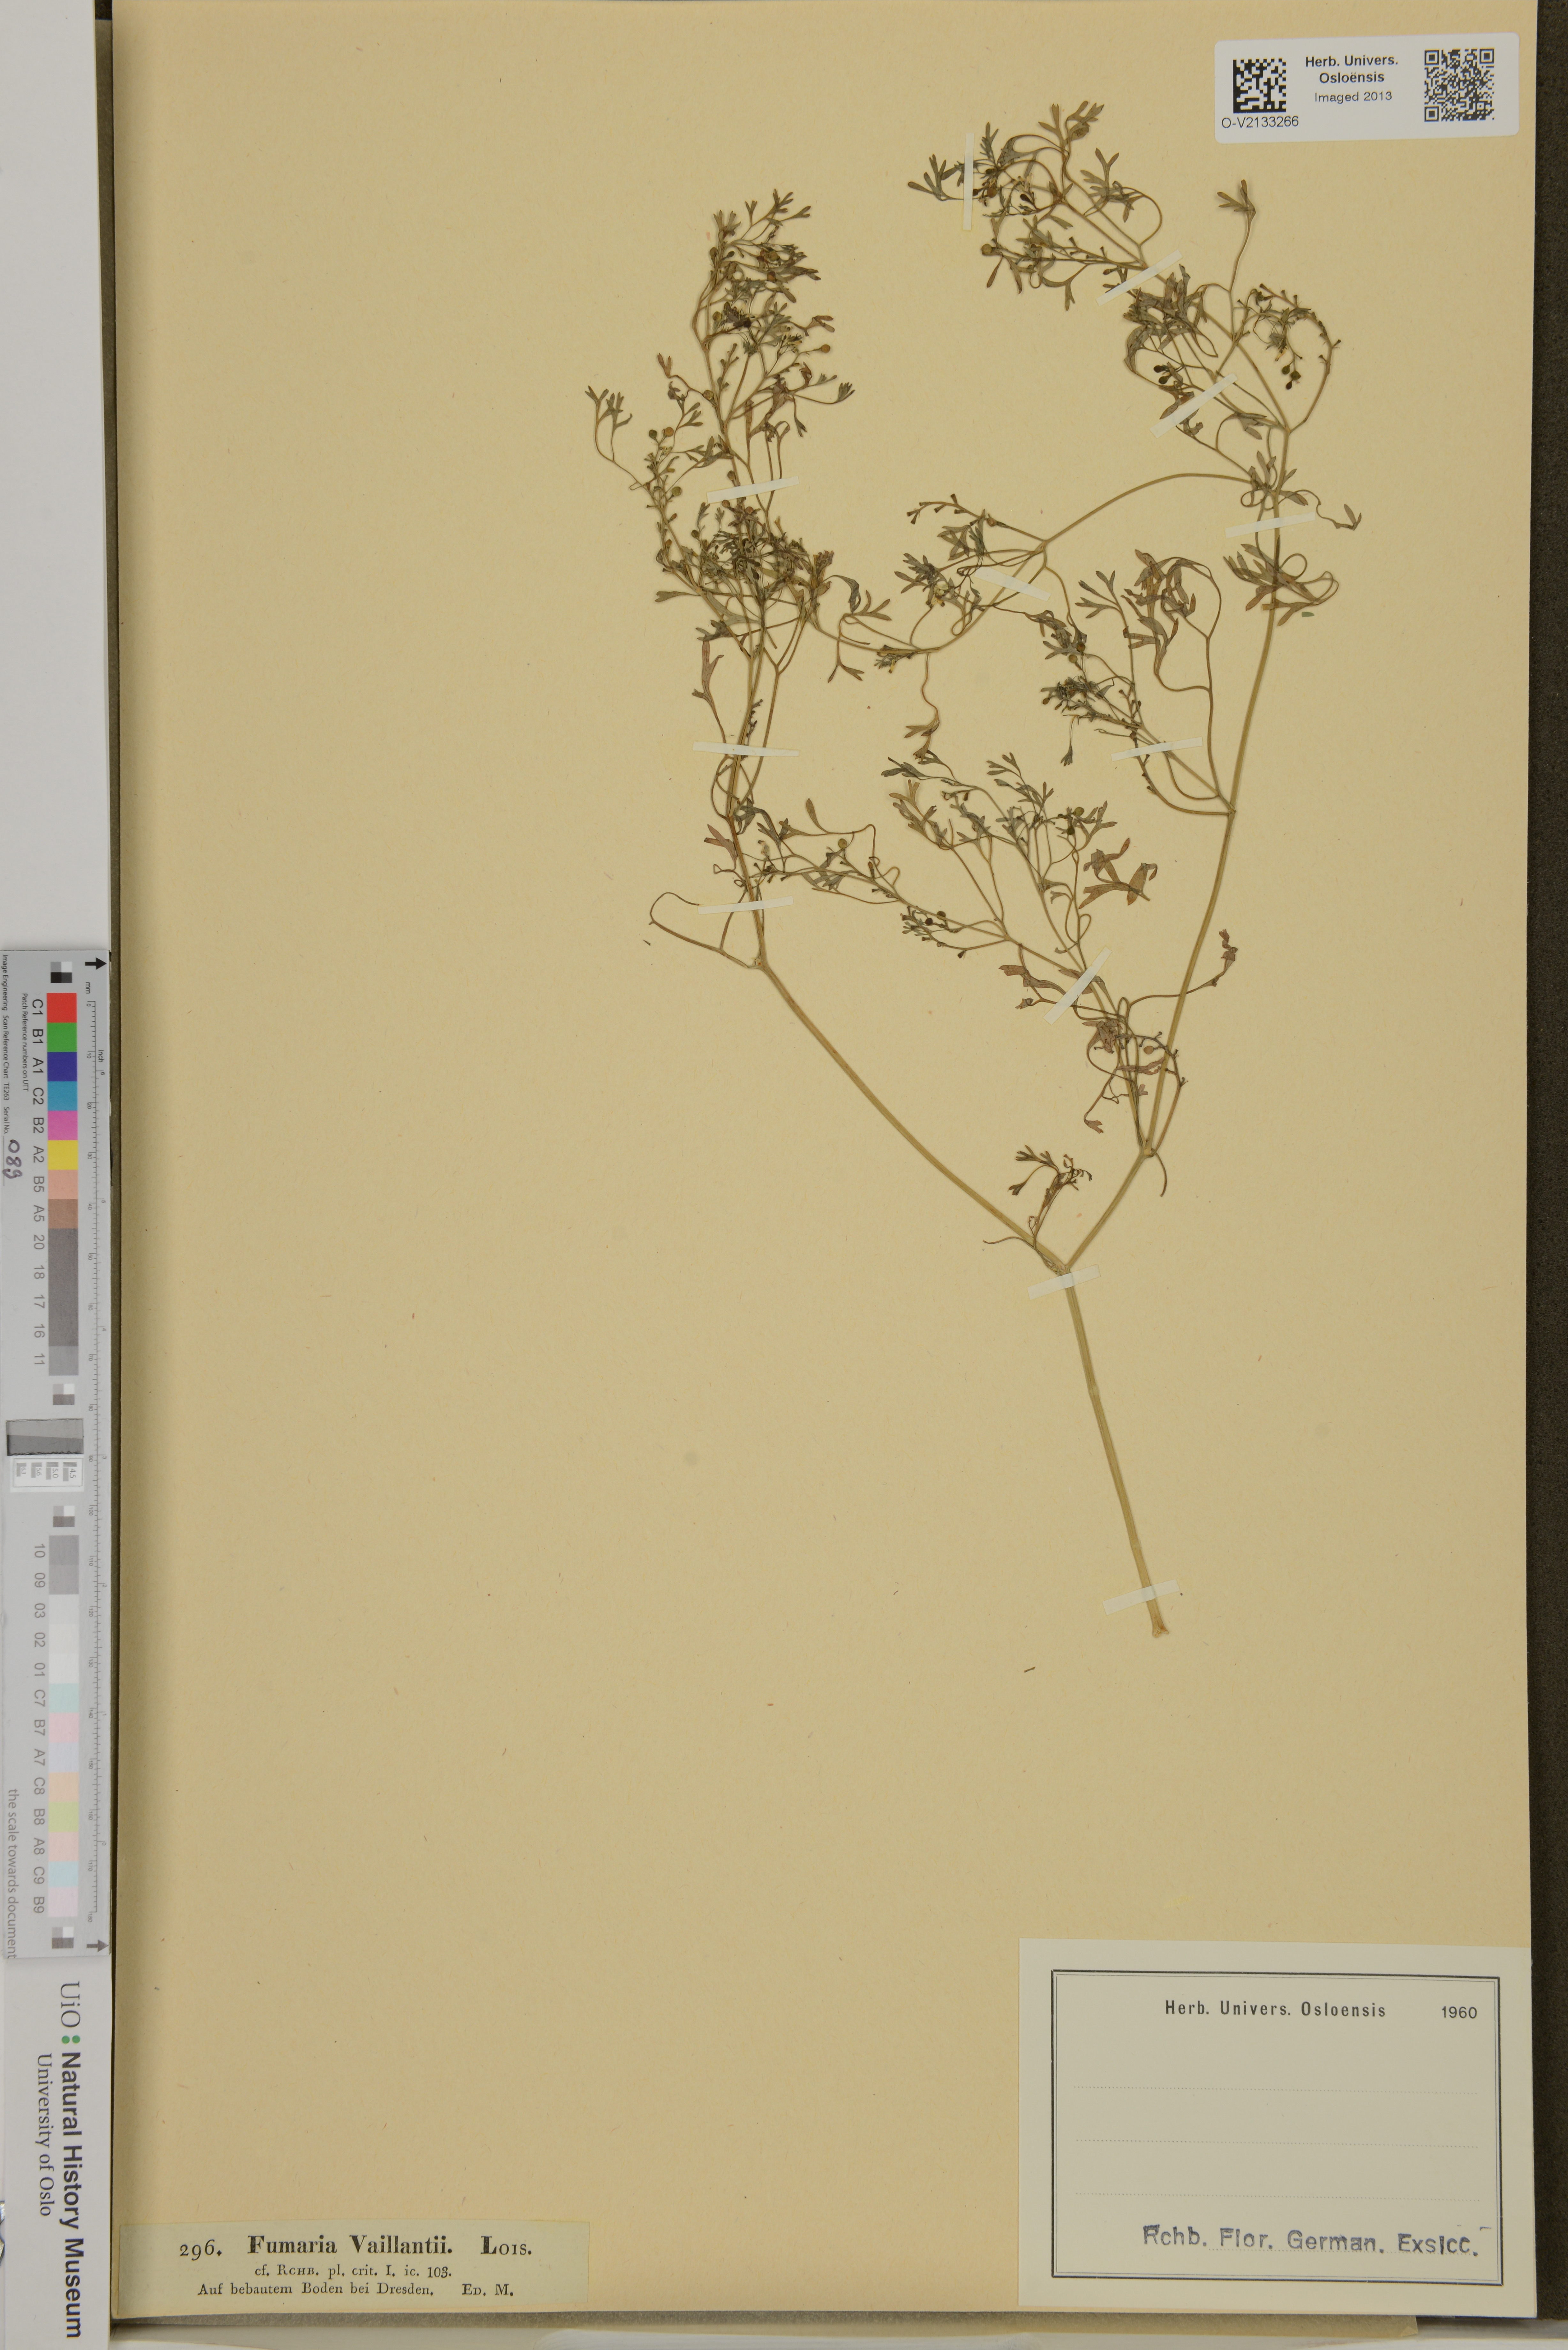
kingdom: Plantae
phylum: Tracheophyta
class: Magnoliopsida
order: Ranunculales
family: Papaveraceae
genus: Fumaria
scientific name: Fumaria vaillantii
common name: Few-flowered fumitory
